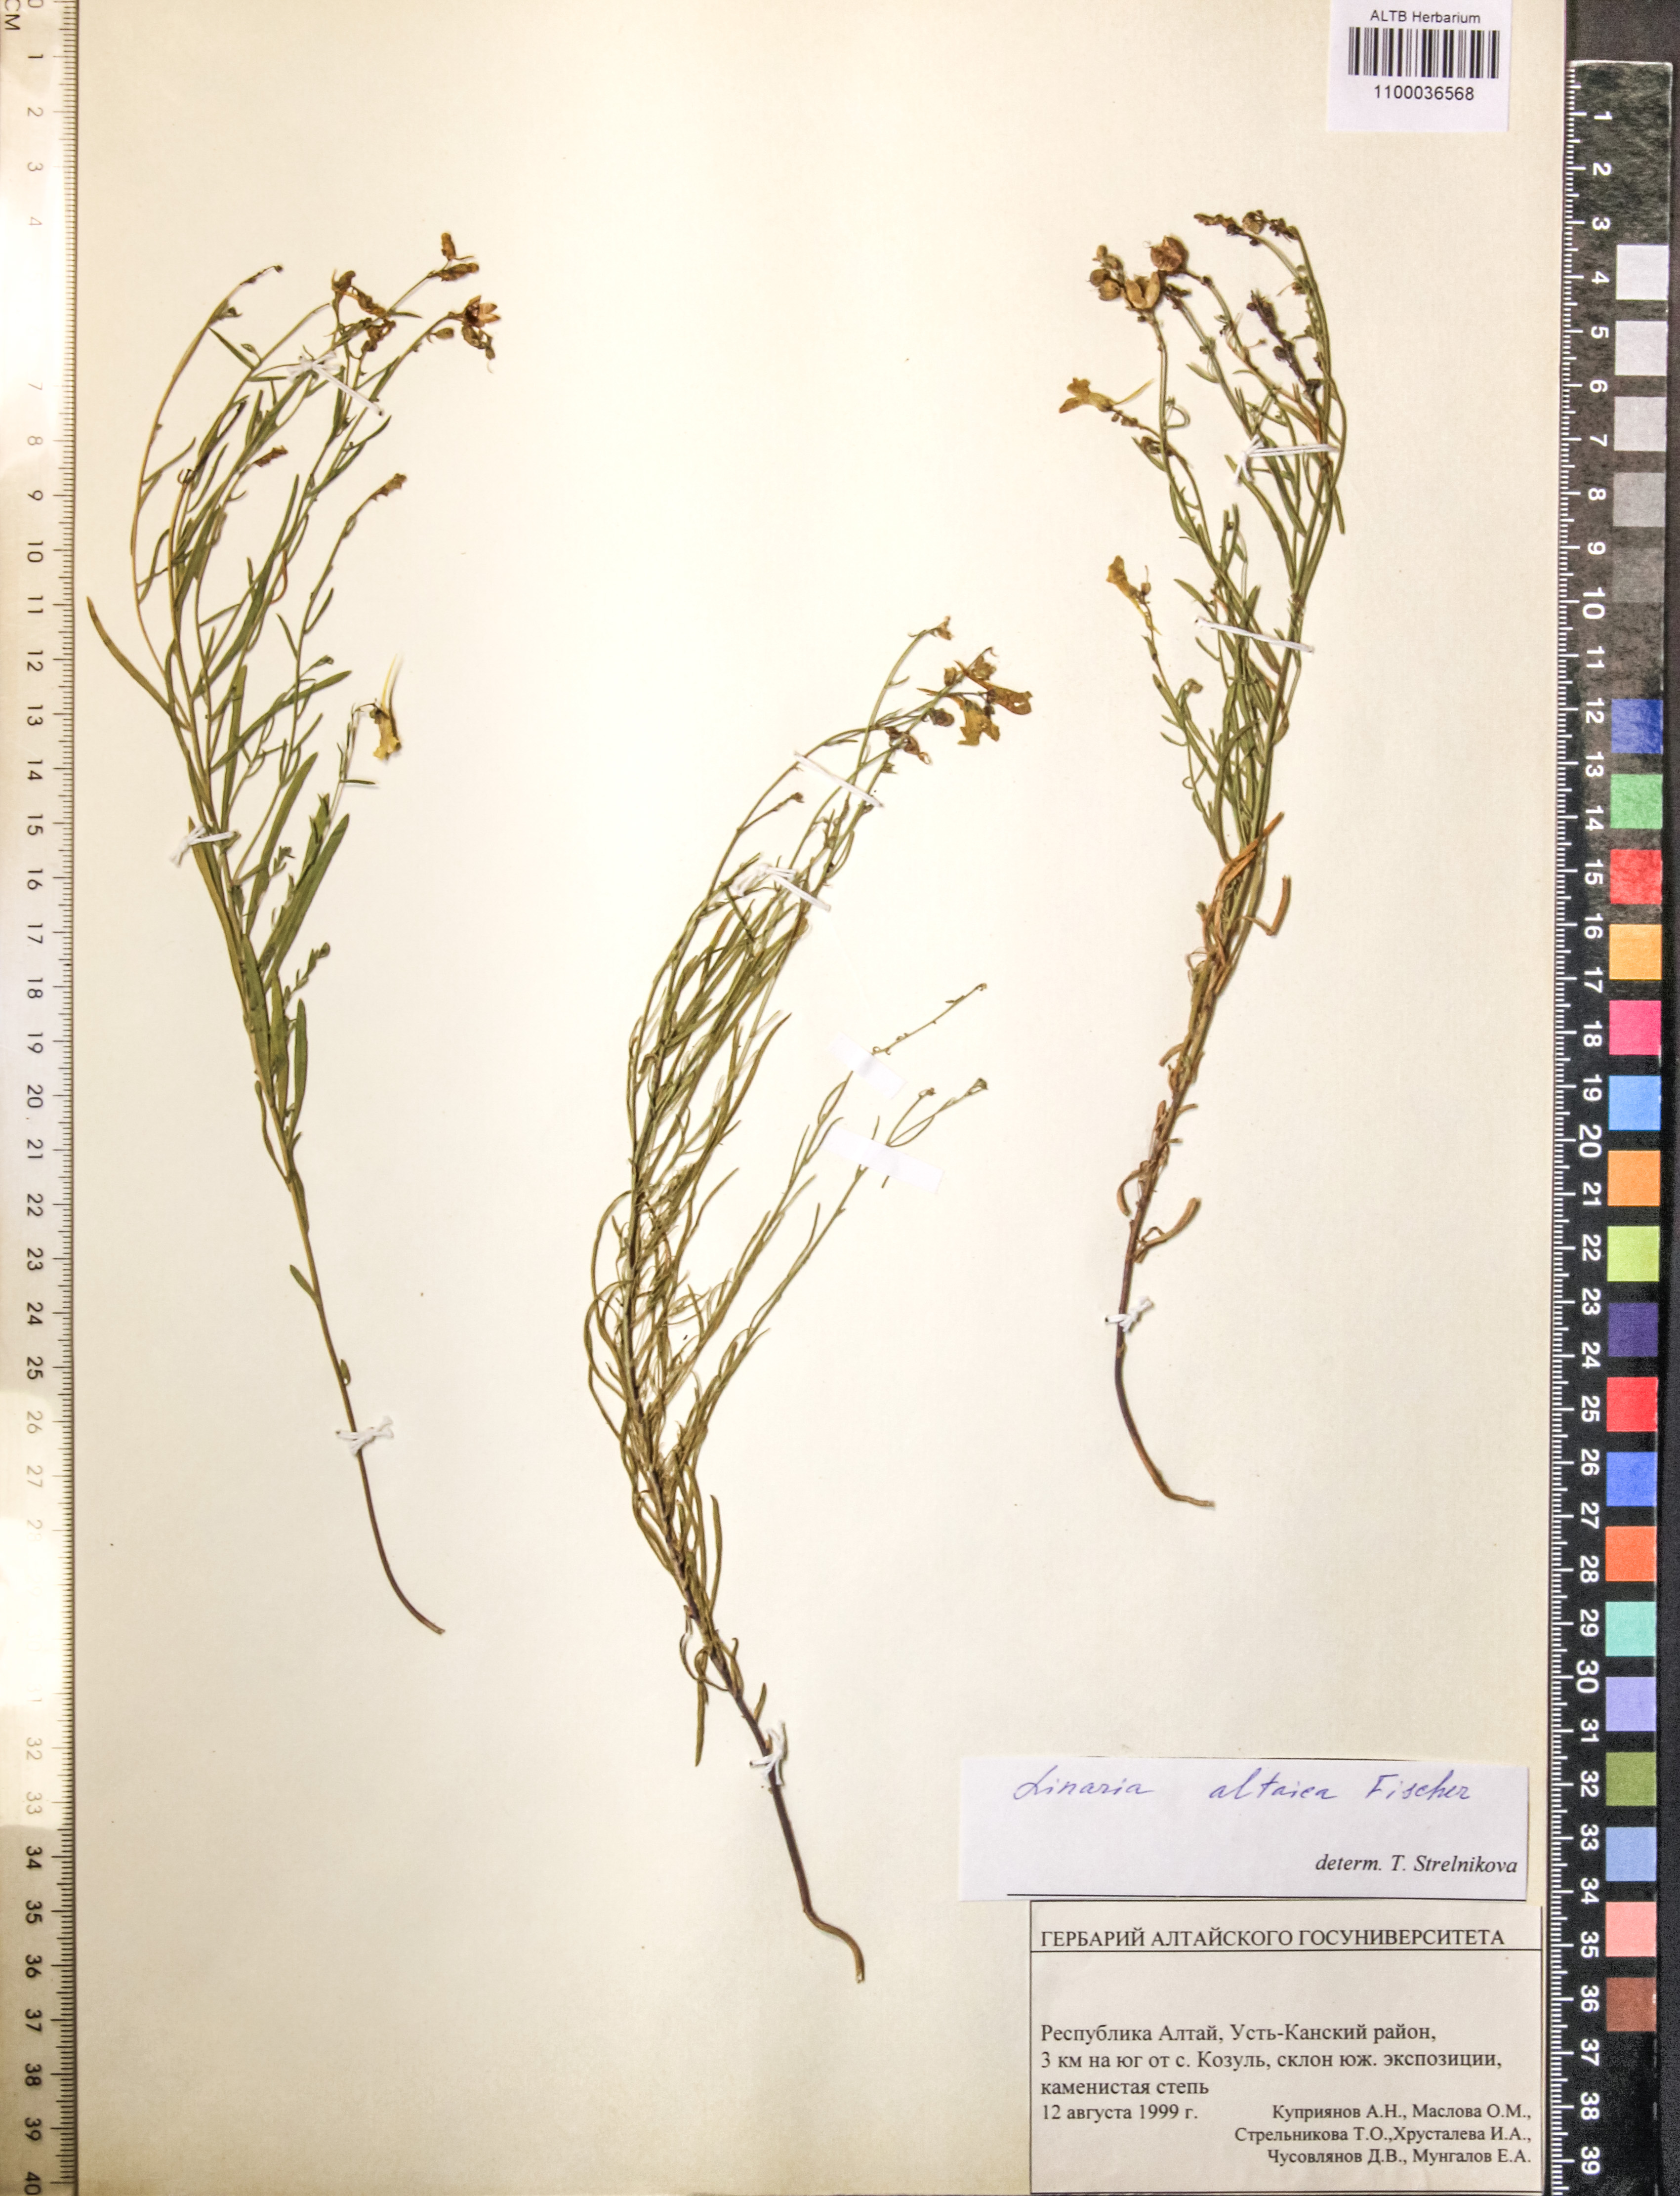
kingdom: Plantae
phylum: Tracheophyta
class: Magnoliopsida
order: Lamiales
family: Plantaginaceae
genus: Linaria
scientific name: Linaria altaica
